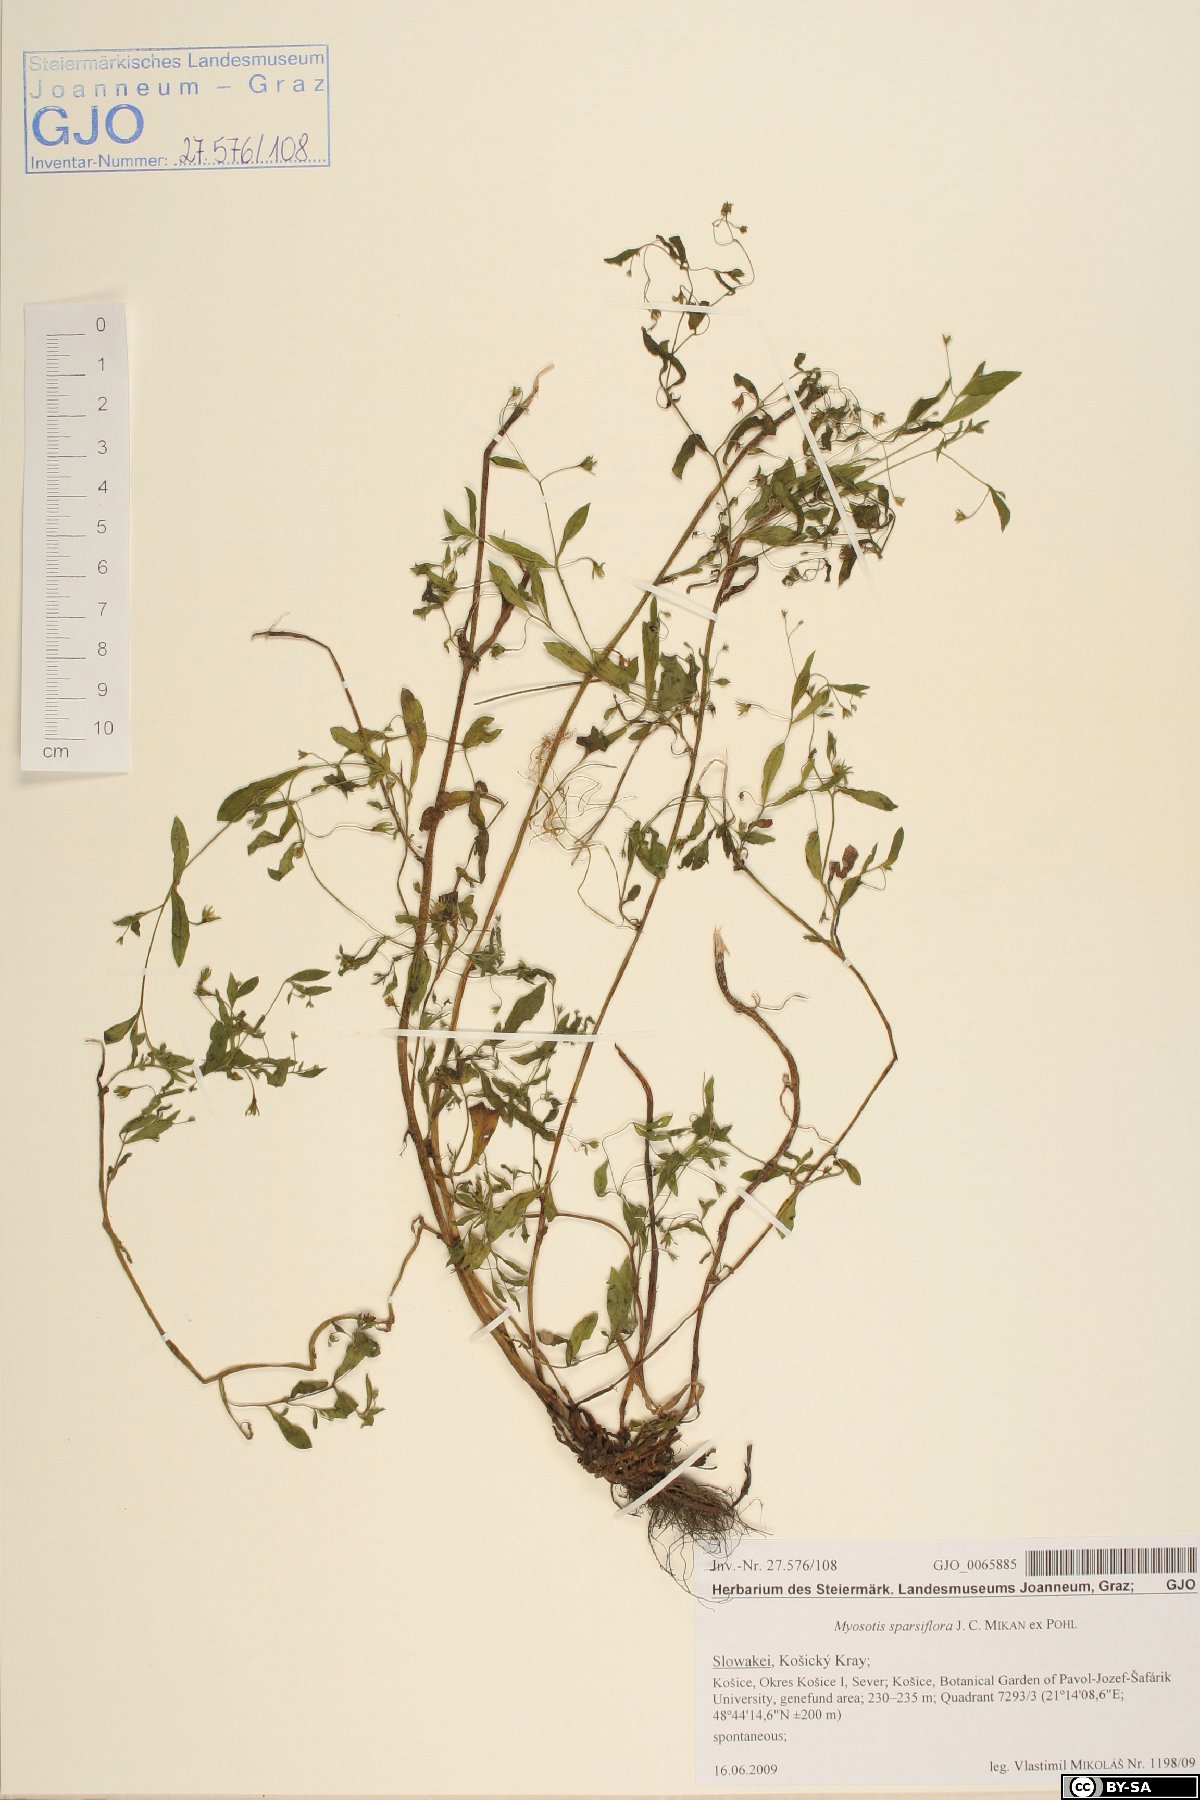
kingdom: Plantae
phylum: Tracheophyta
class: Magnoliopsida
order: Boraginales
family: Boraginaceae
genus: Myosotis
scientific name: Myosotis sparsiflora
